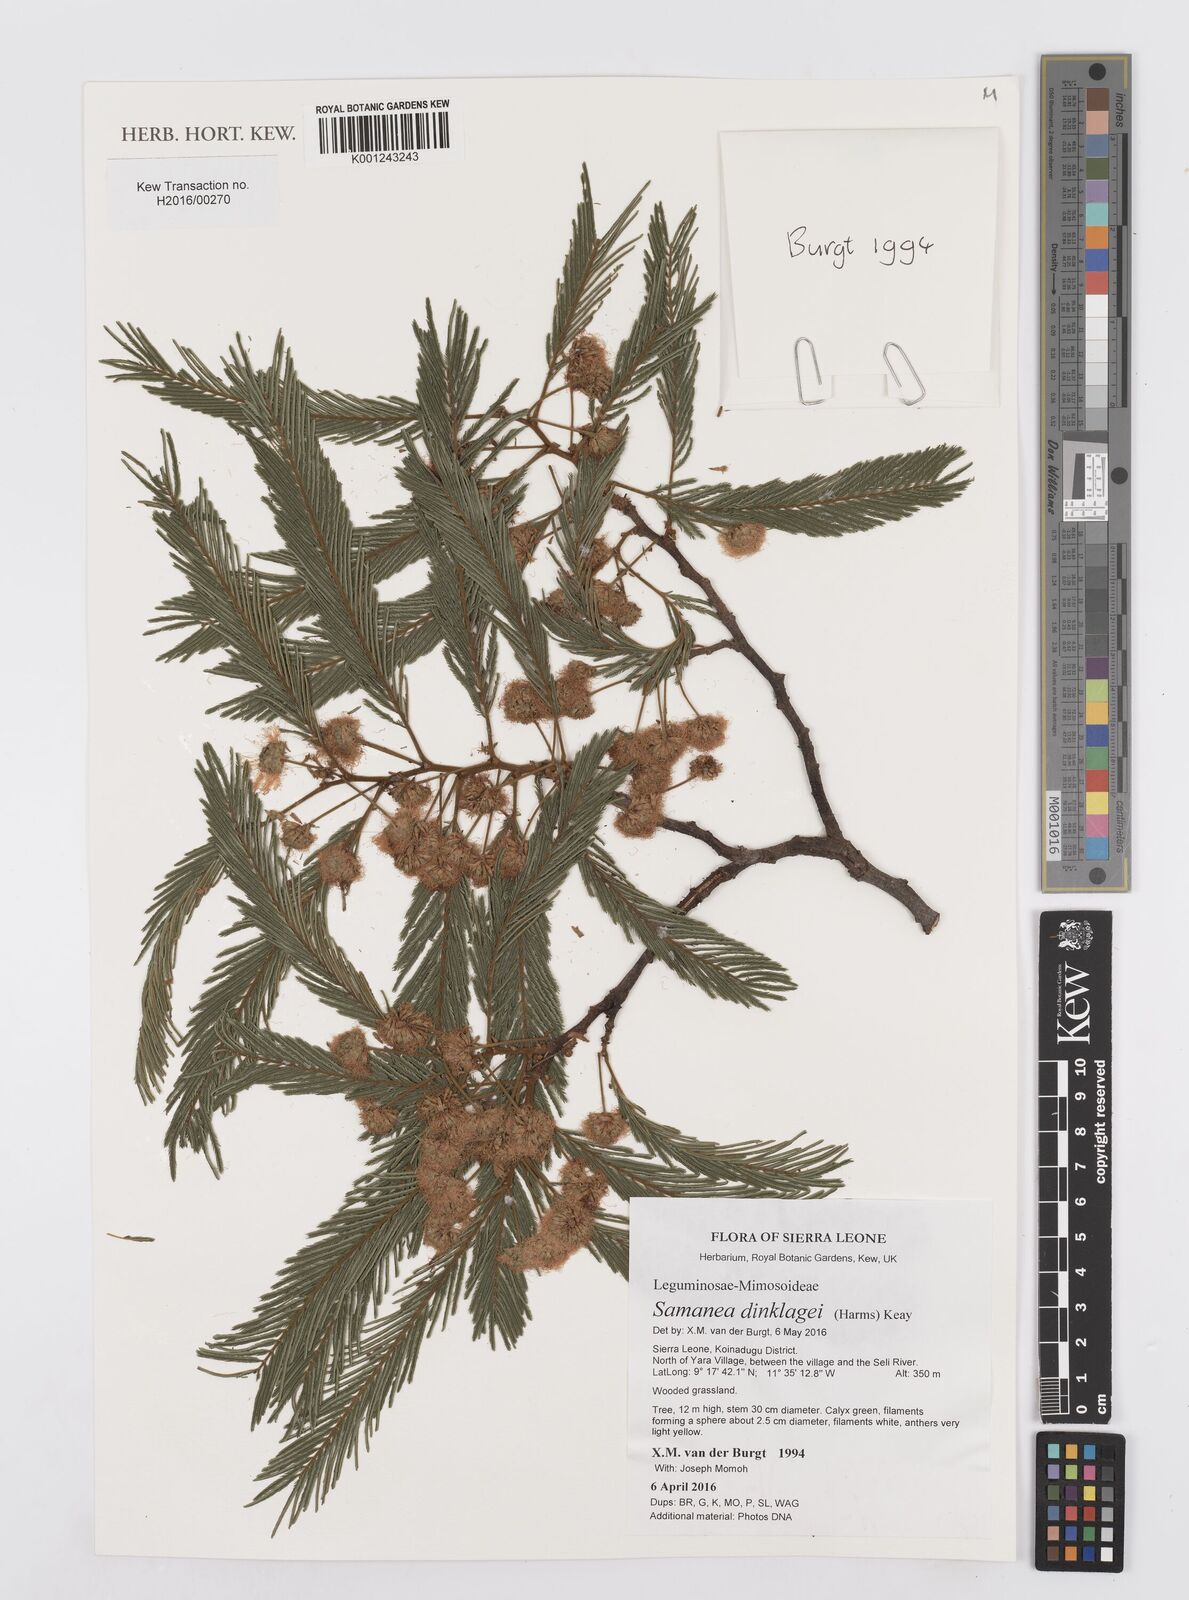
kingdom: Plantae
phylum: Tracheophyta
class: Magnoliopsida
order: Fabales
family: Fabaceae
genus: Albizia
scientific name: Albizia dinklagei
